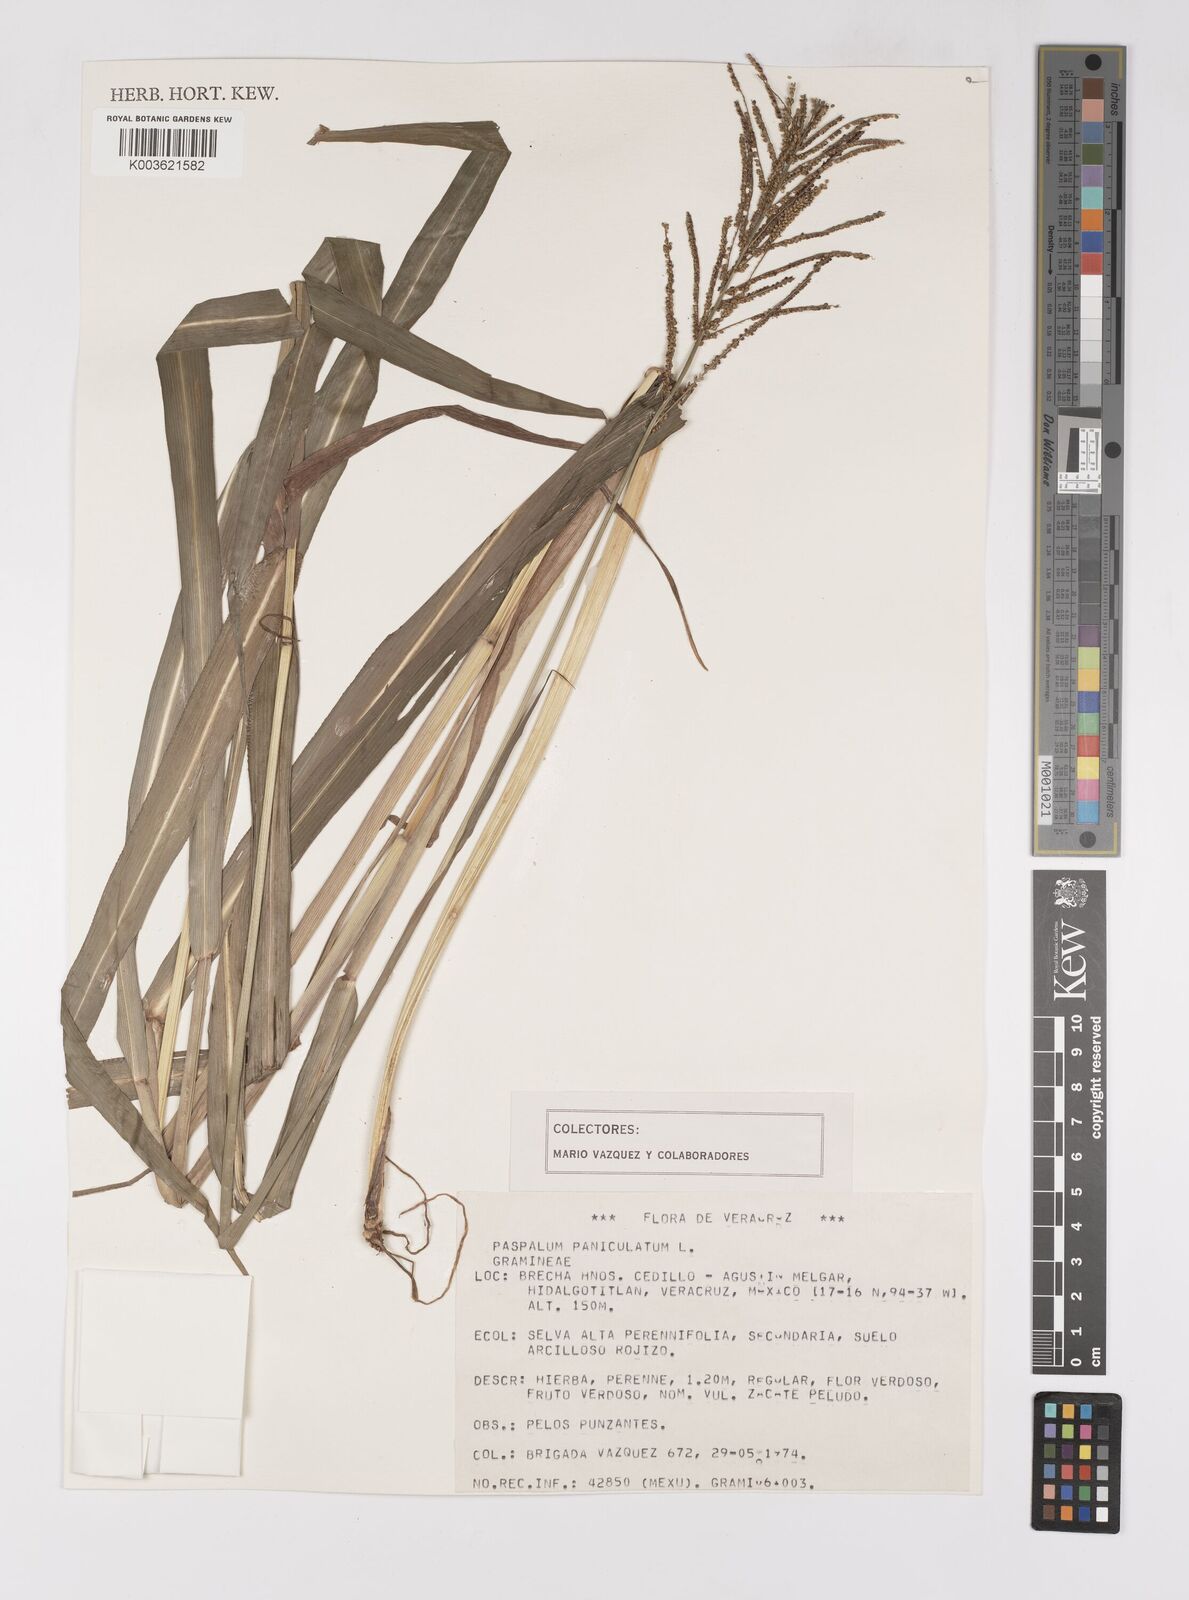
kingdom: Plantae
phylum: Tracheophyta
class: Liliopsida
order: Poales
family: Poaceae
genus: Paspalum
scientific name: Paspalum paniculatum
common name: Arrocillo
